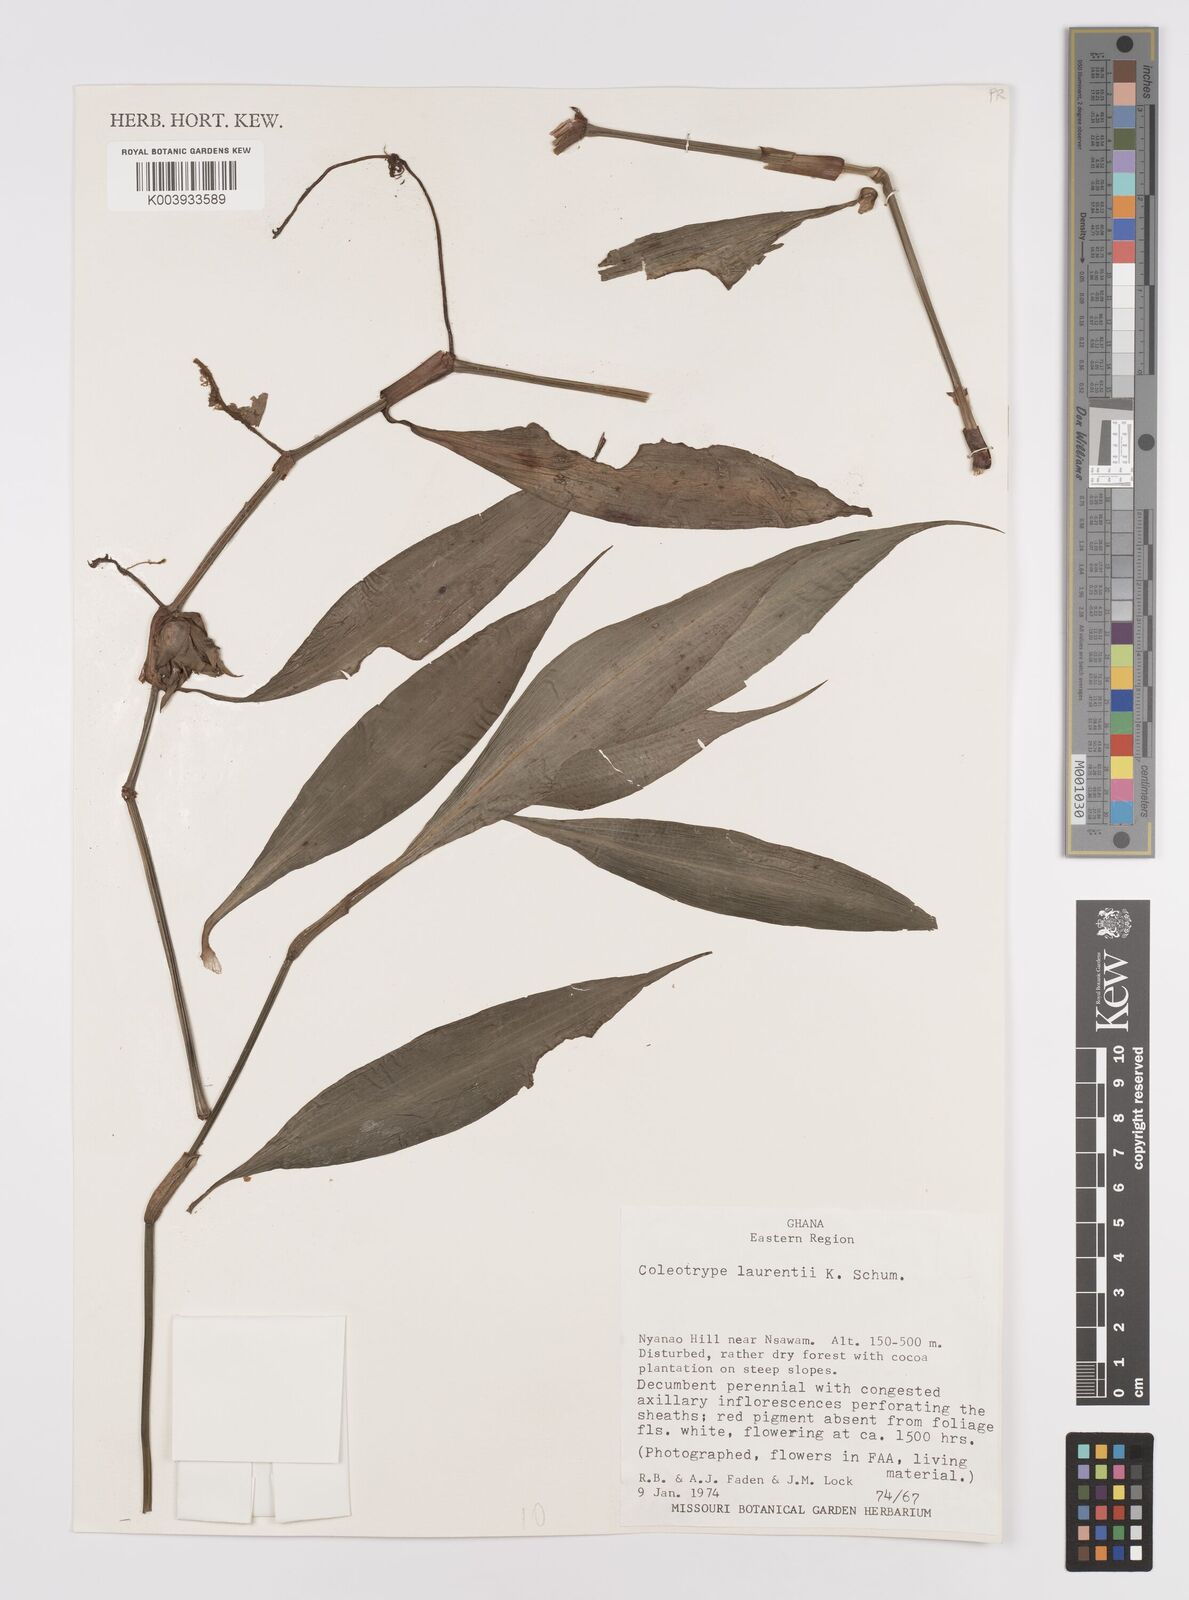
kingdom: Plantae
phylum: Tracheophyta
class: Liliopsida
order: Commelinales
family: Commelinaceae
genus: Coleotrype
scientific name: Coleotrype laurentii
